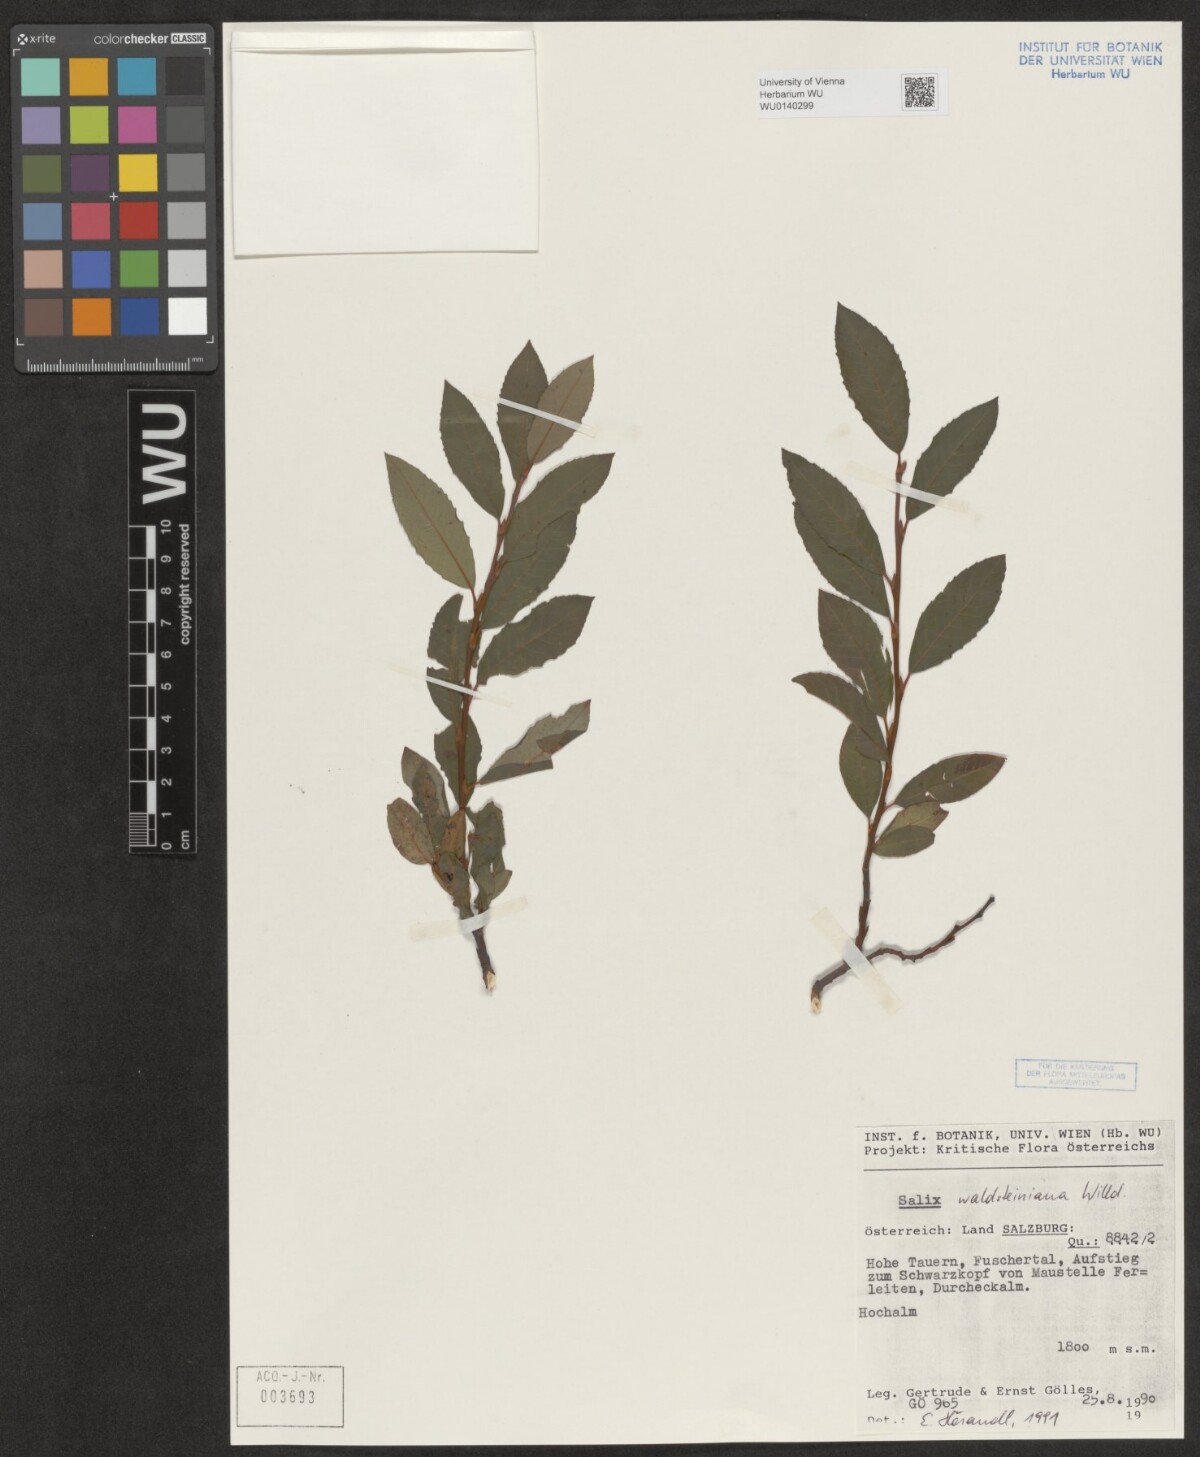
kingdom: Plantae
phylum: Tracheophyta
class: Magnoliopsida
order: Malpighiales
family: Salicaceae
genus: Salix
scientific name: Salix waldsteiniana
